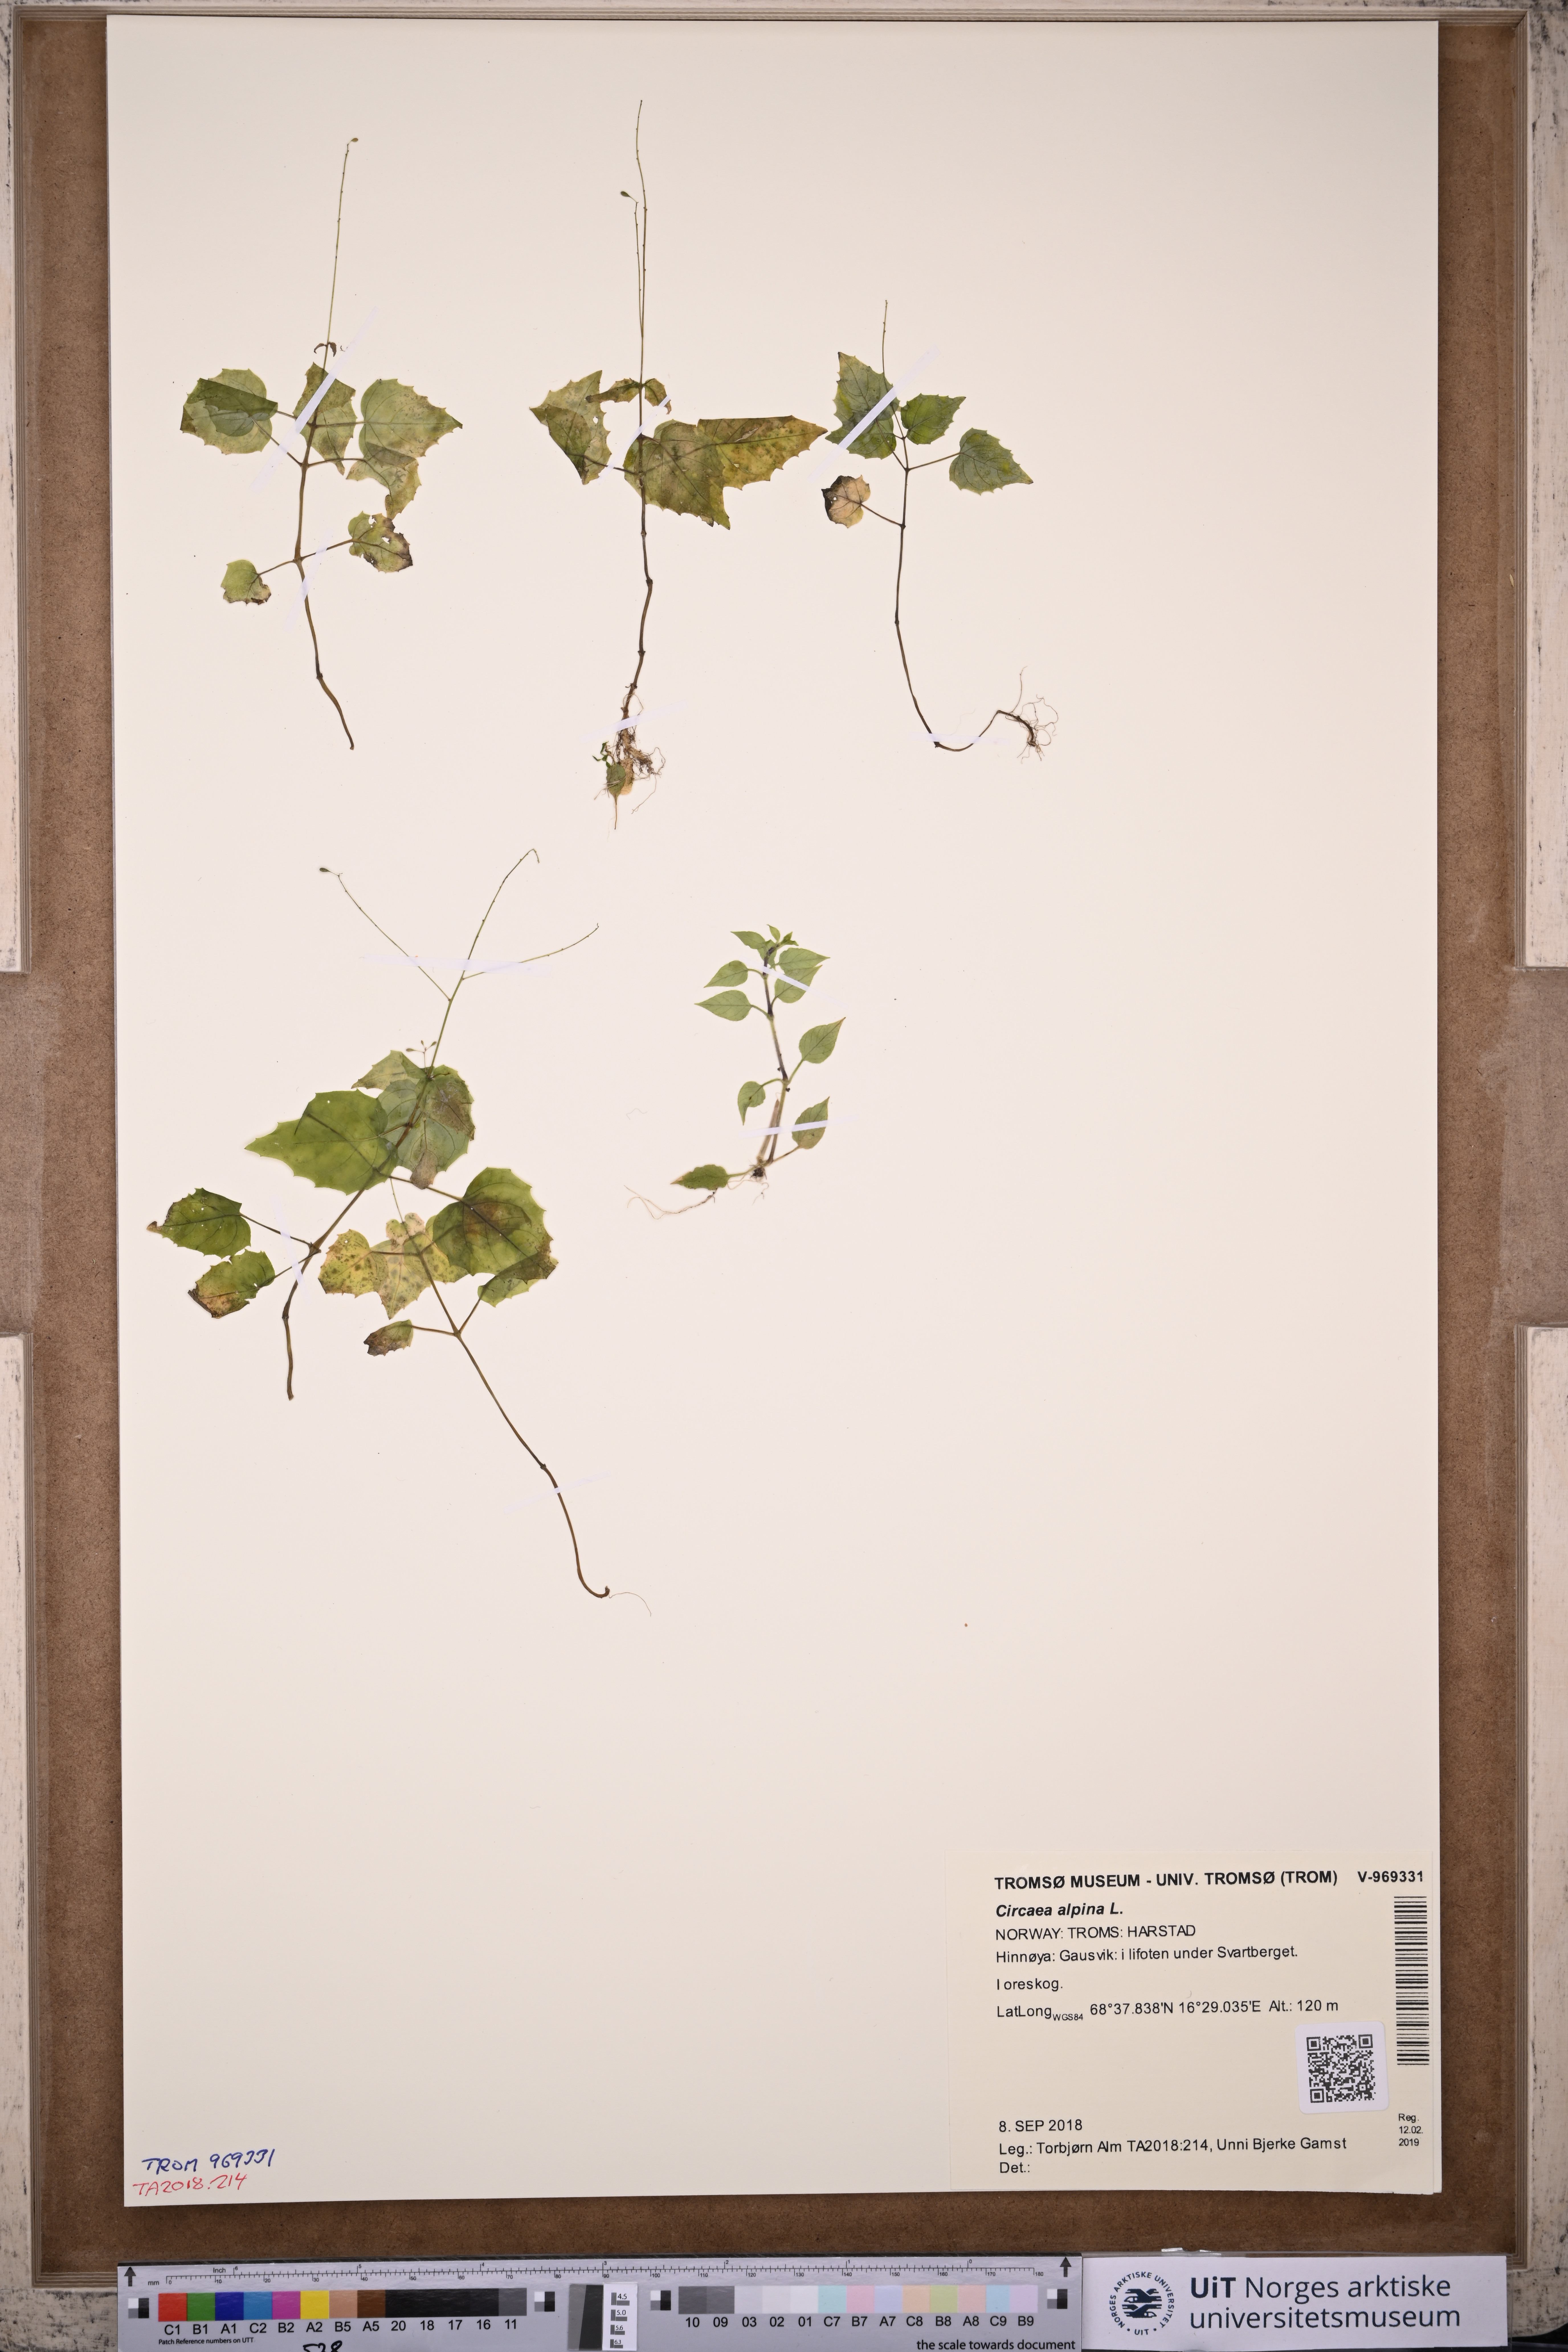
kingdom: Plantae
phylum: Tracheophyta
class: Magnoliopsida
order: Myrtales
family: Onagraceae
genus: Circaea
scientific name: Circaea alpina
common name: Alpine enchanter's-nightshade
